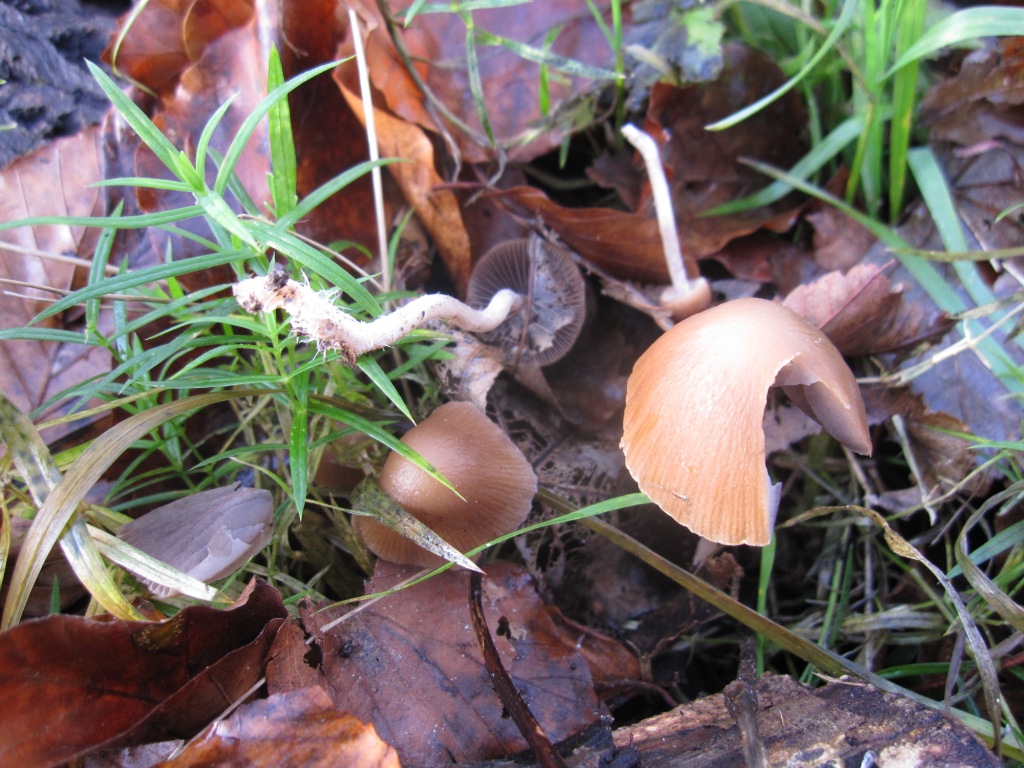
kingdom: Fungi
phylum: Basidiomycota
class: Agaricomycetes
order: Agaricales
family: Psathyrellaceae
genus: Psathyrella
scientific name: Psathyrella microrhiza
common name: rod-mørkhat
